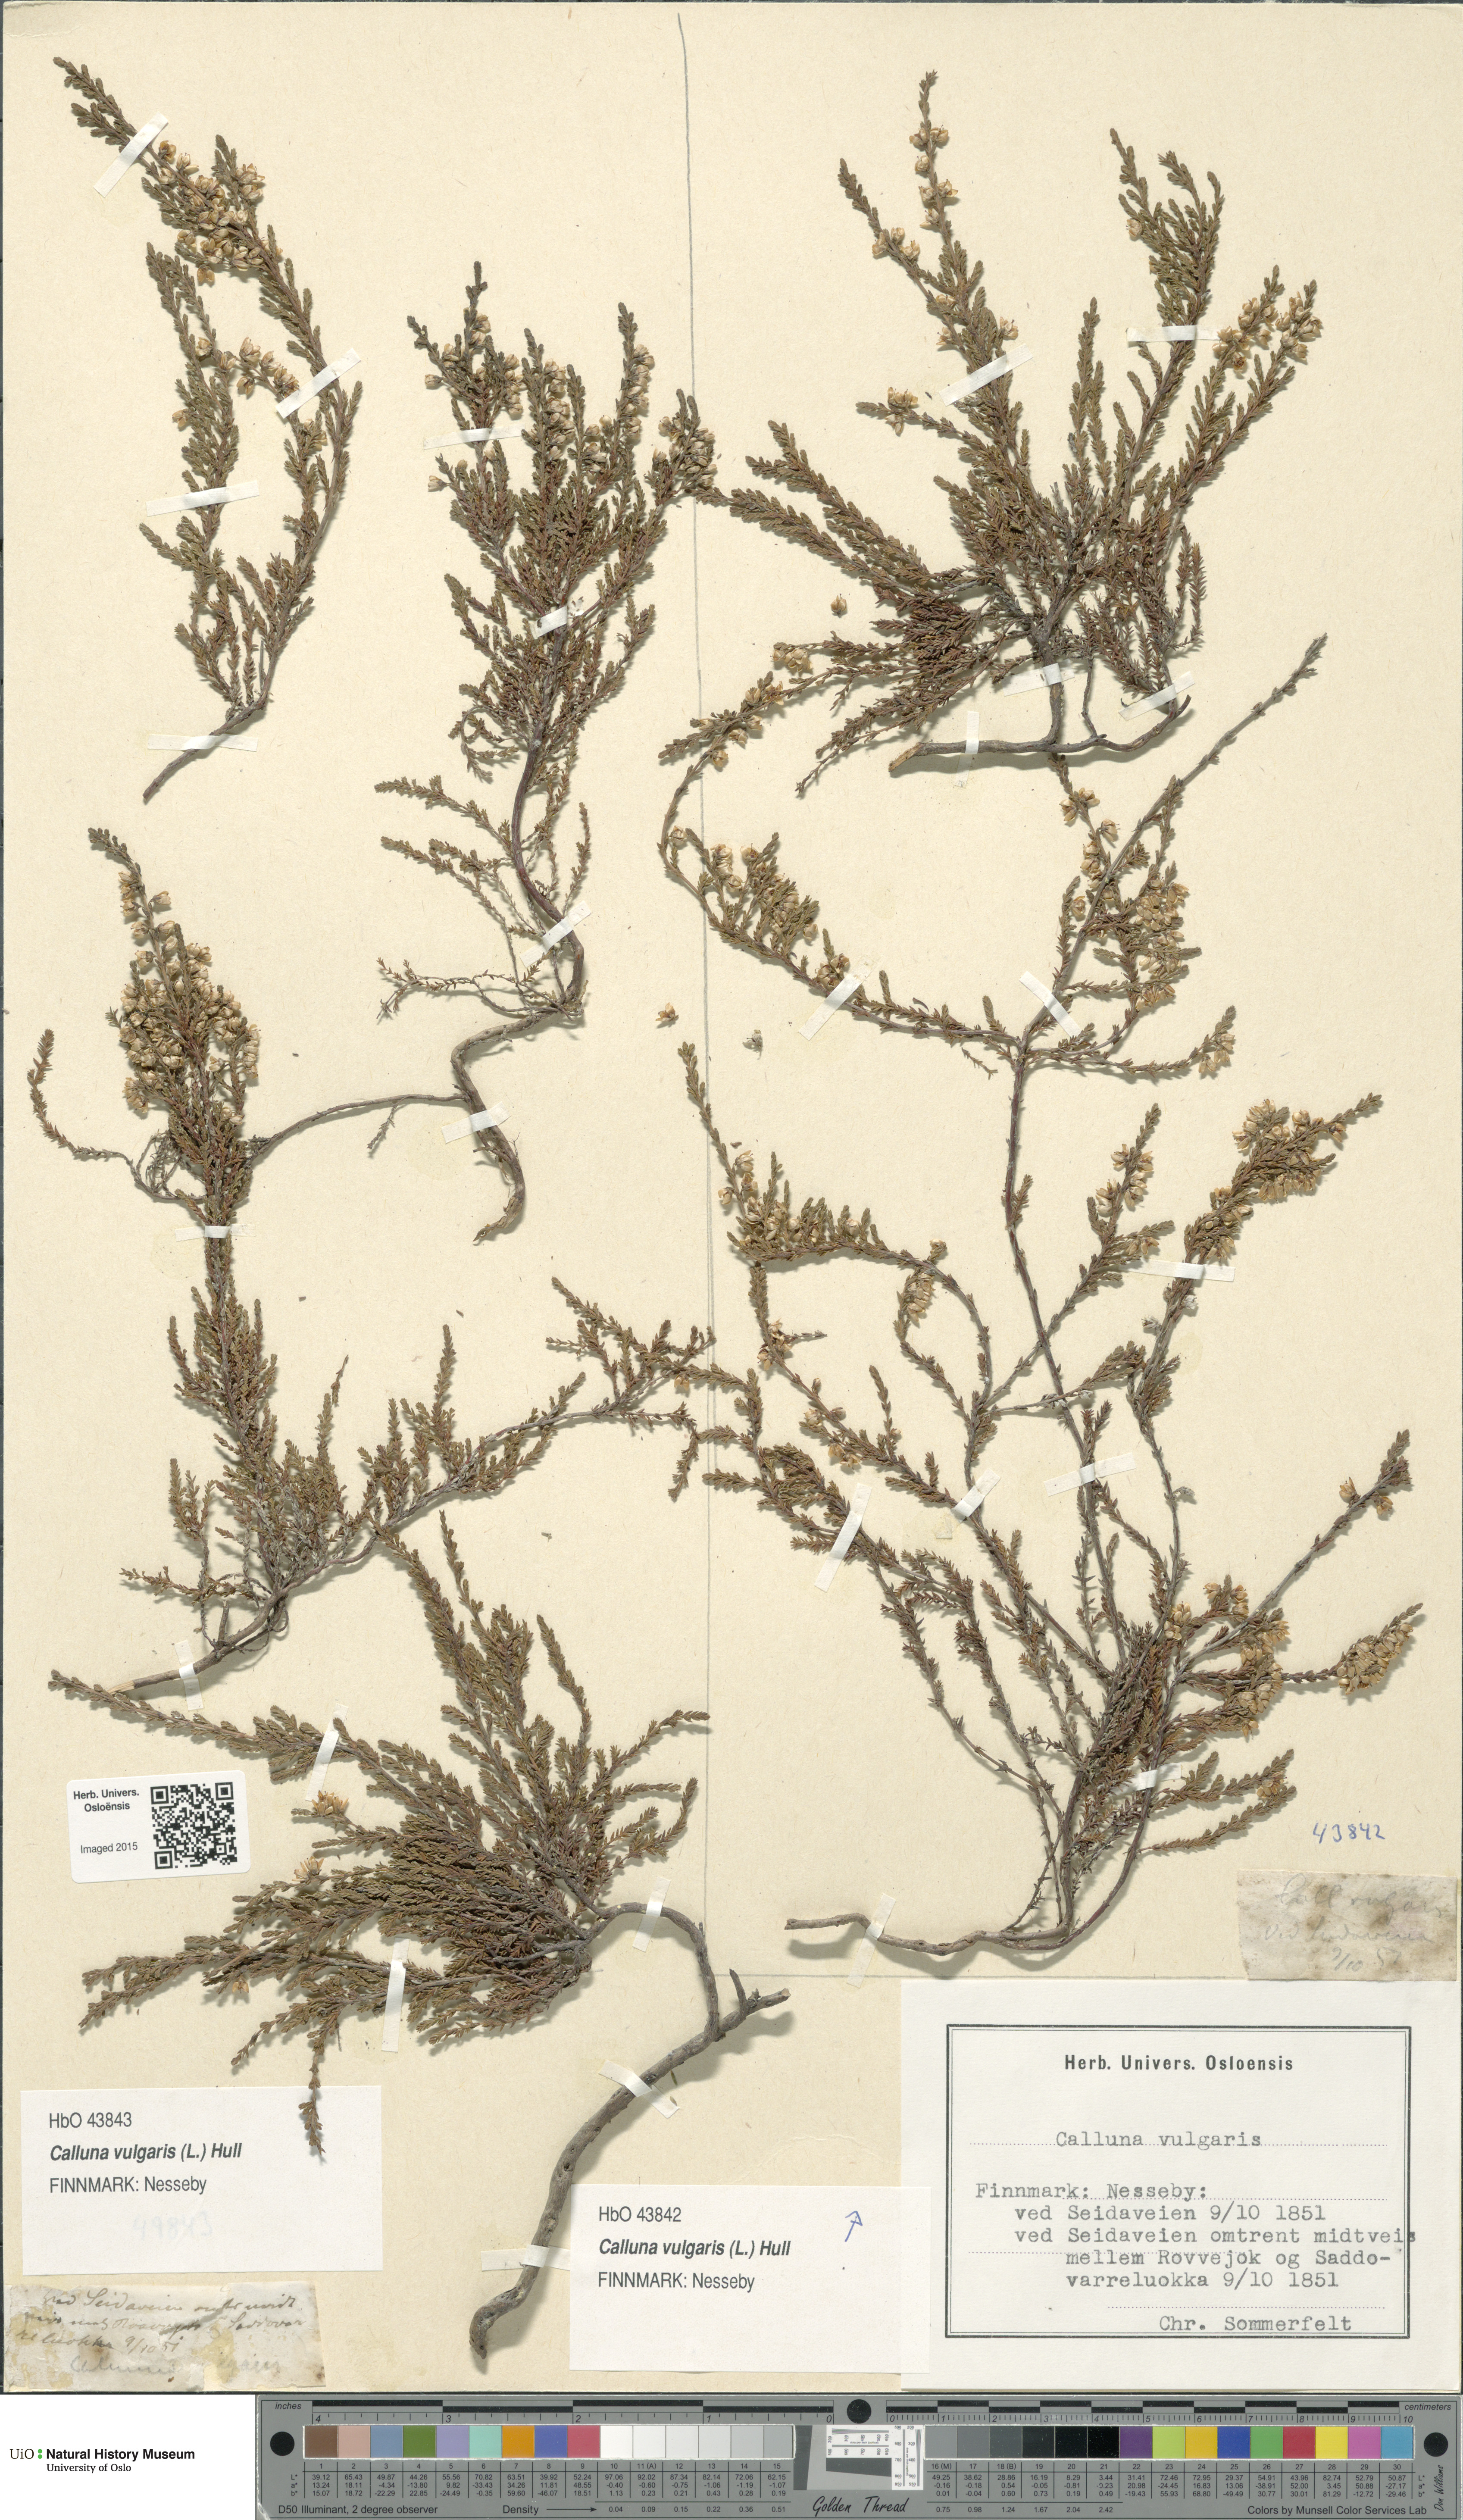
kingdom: Plantae
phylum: Tracheophyta
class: Magnoliopsida
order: Ericales
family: Ericaceae
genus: Calluna
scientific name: Calluna vulgaris
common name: Heather
